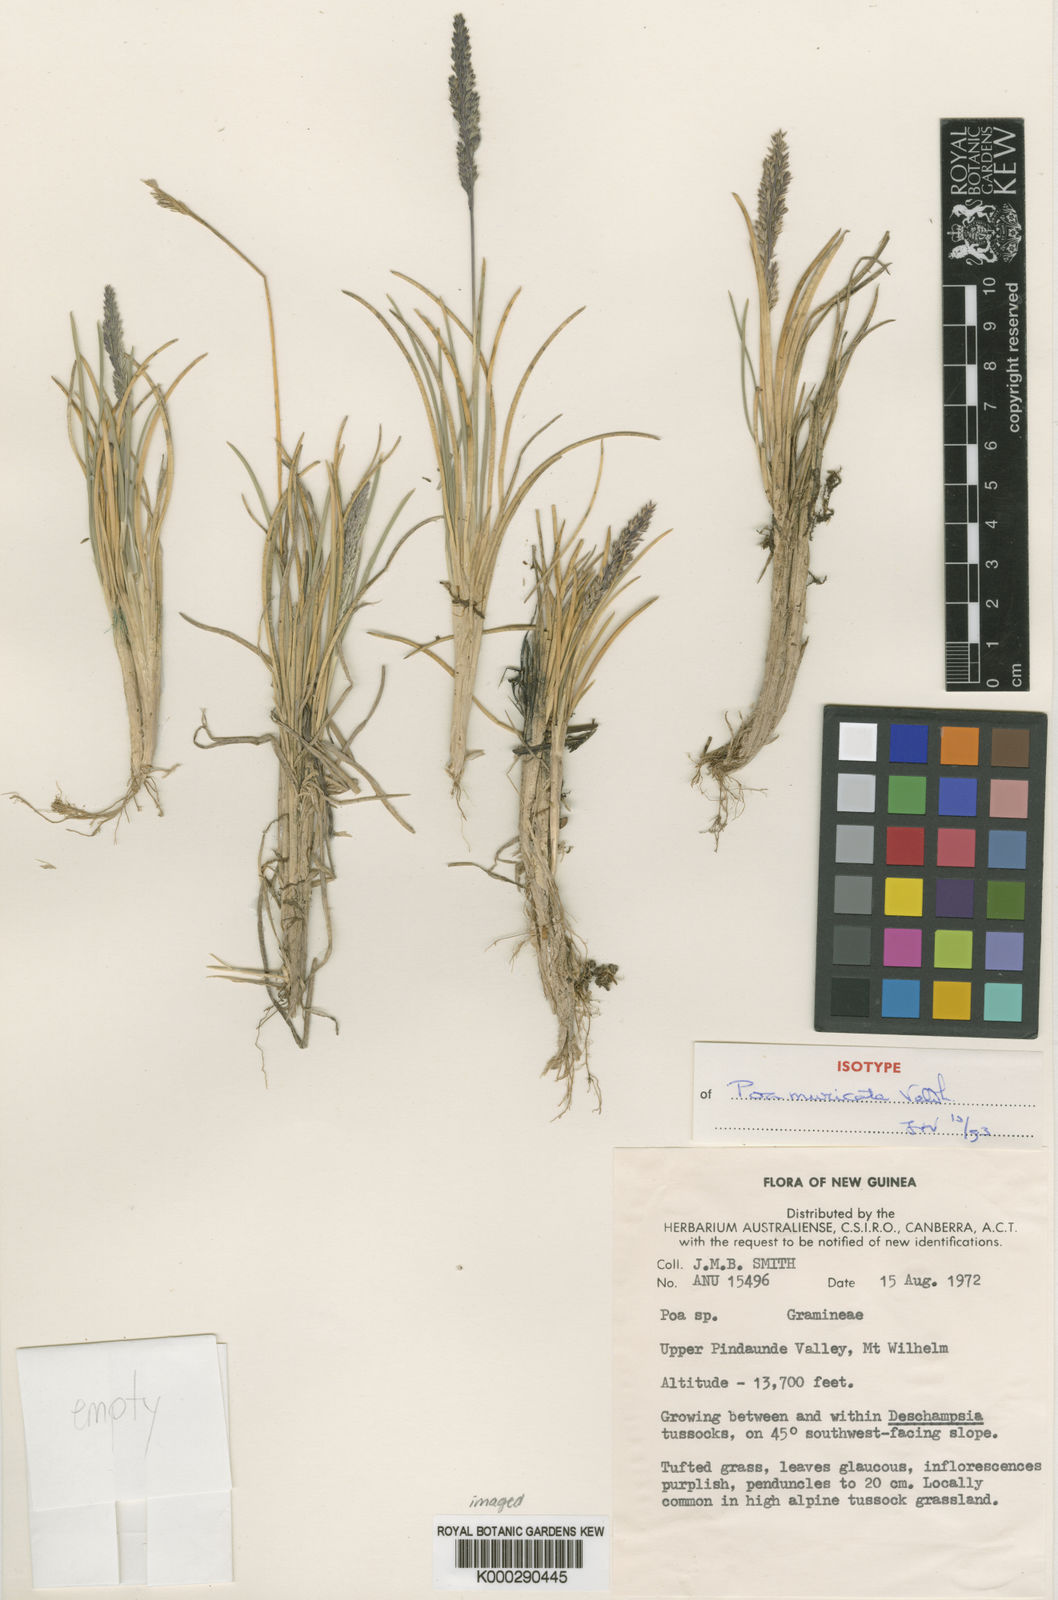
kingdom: Plantae
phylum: Tracheophyta
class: Liliopsida
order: Poales
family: Poaceae
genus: Poa
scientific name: Poa muricata
